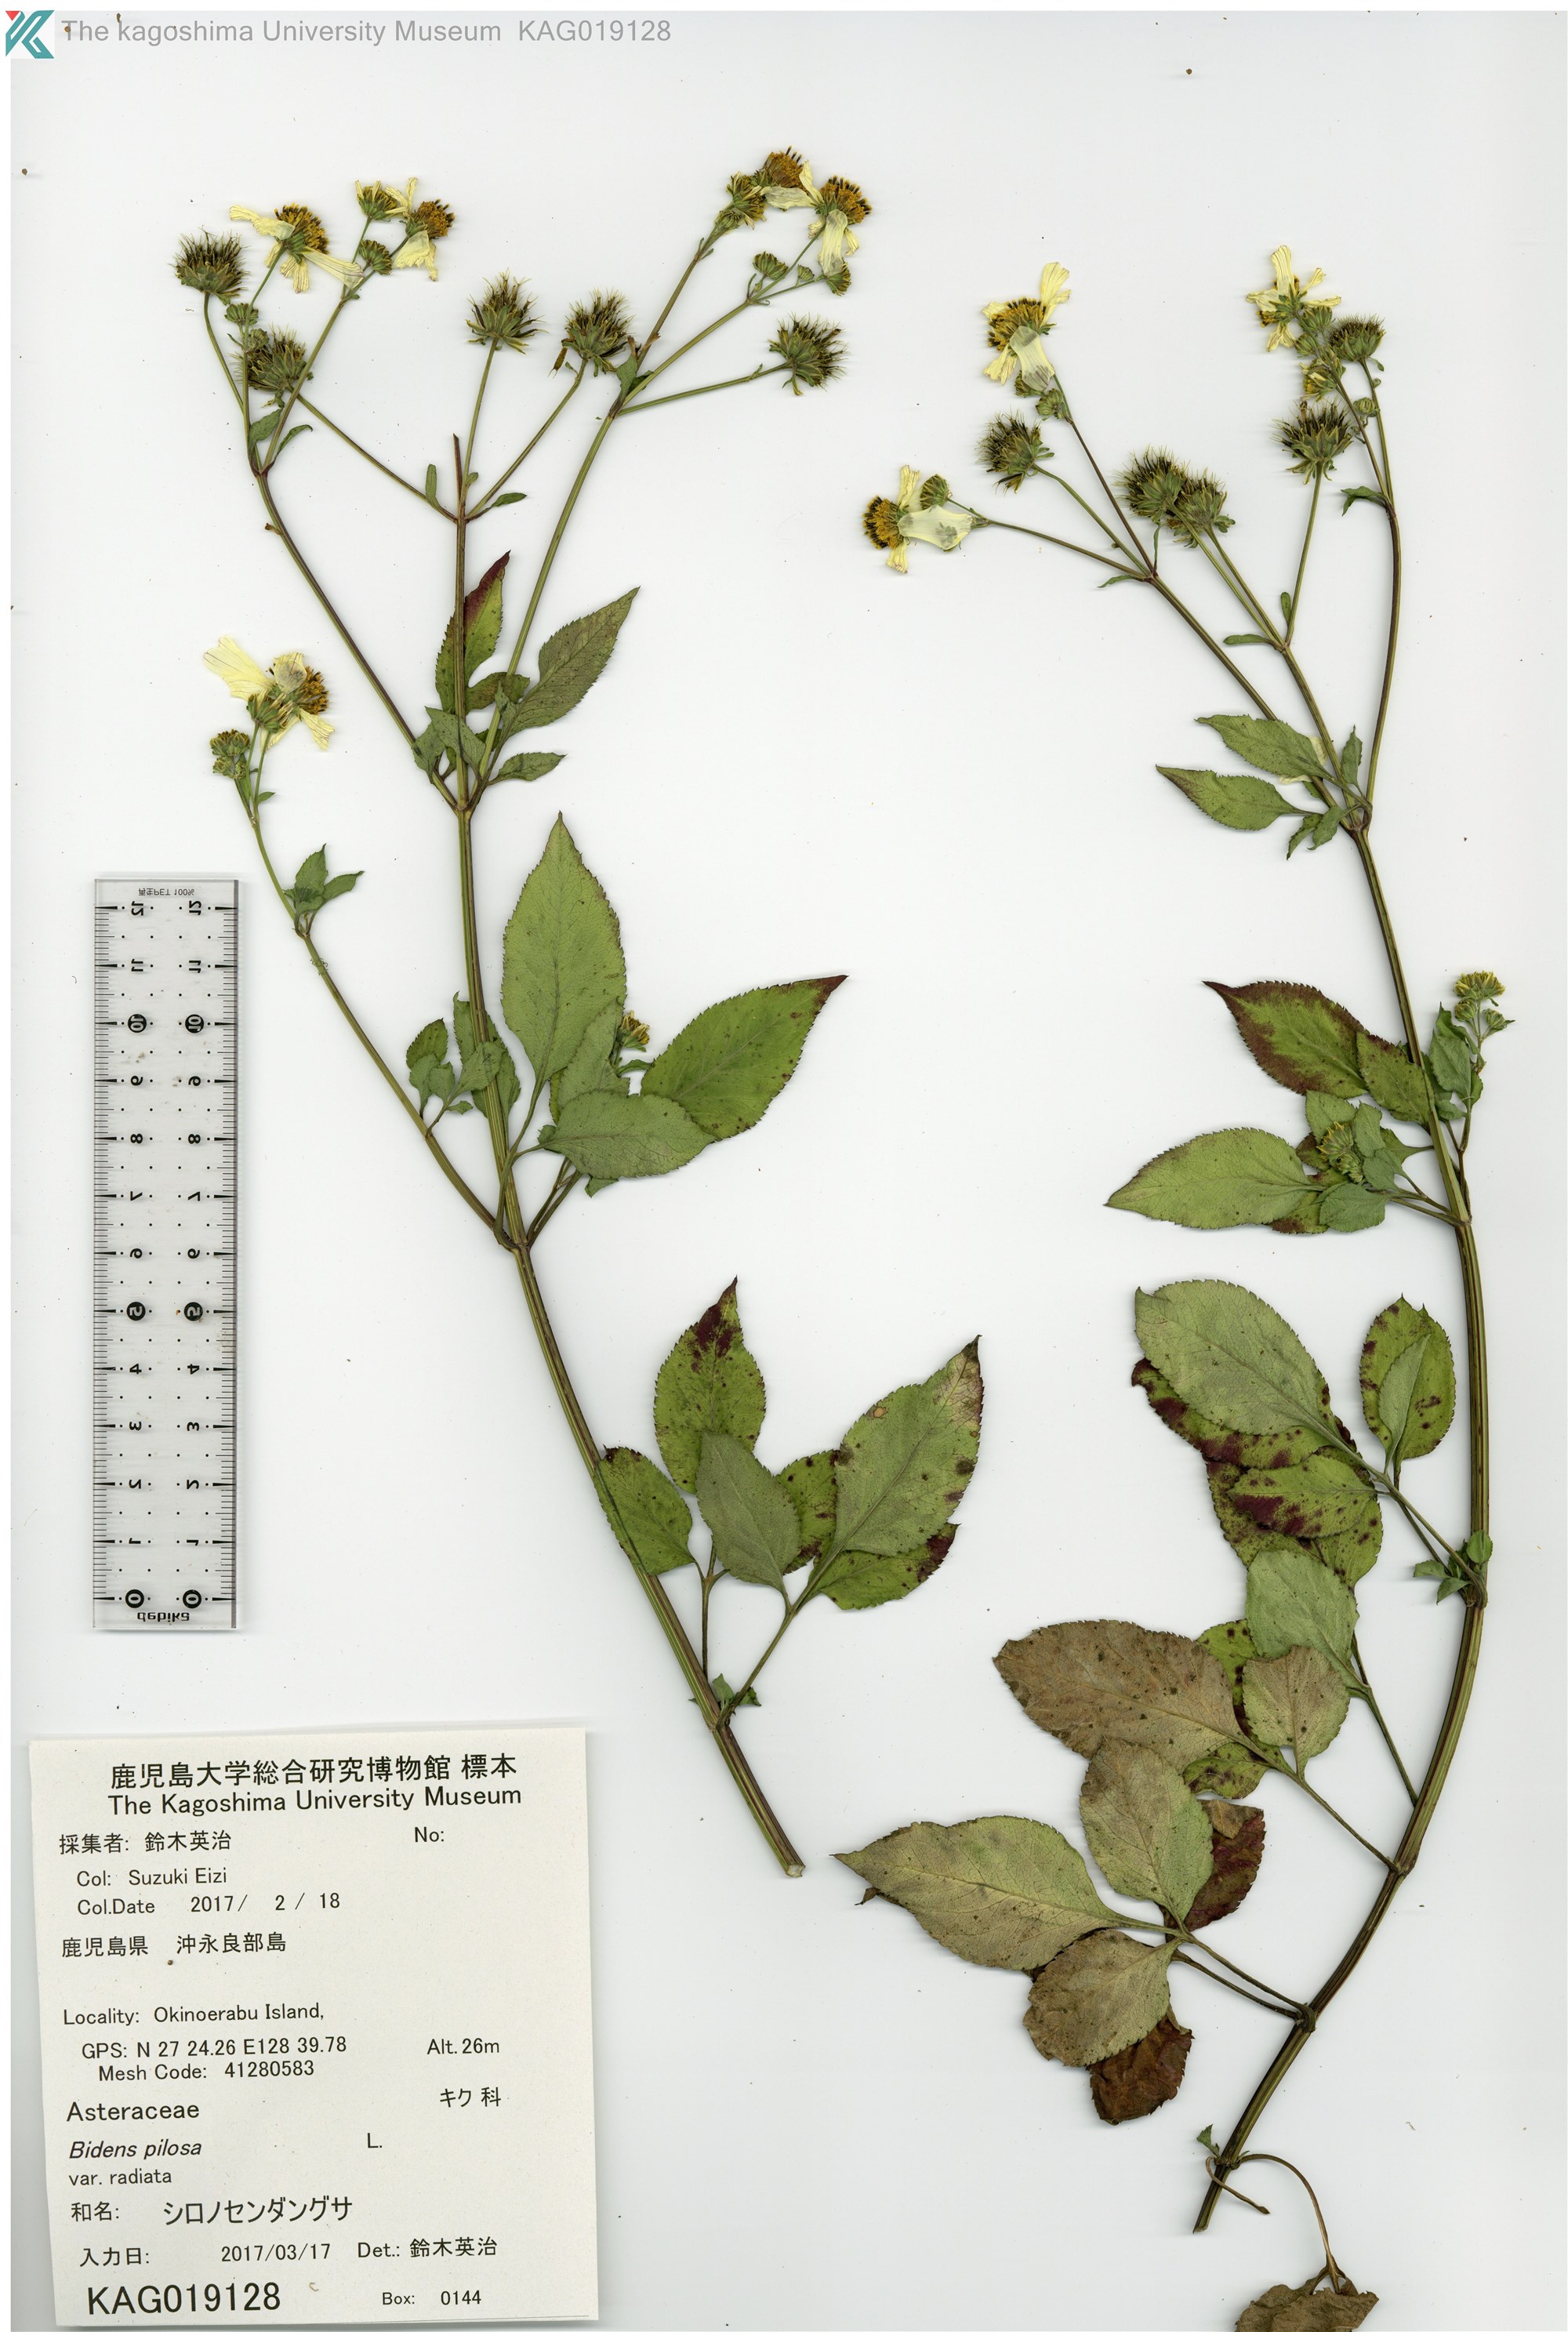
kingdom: Plantae
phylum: Tracheophyta
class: Magnoliopsida
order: Asterales
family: Asteraceae
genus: Bidens
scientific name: Bidens pilosa
